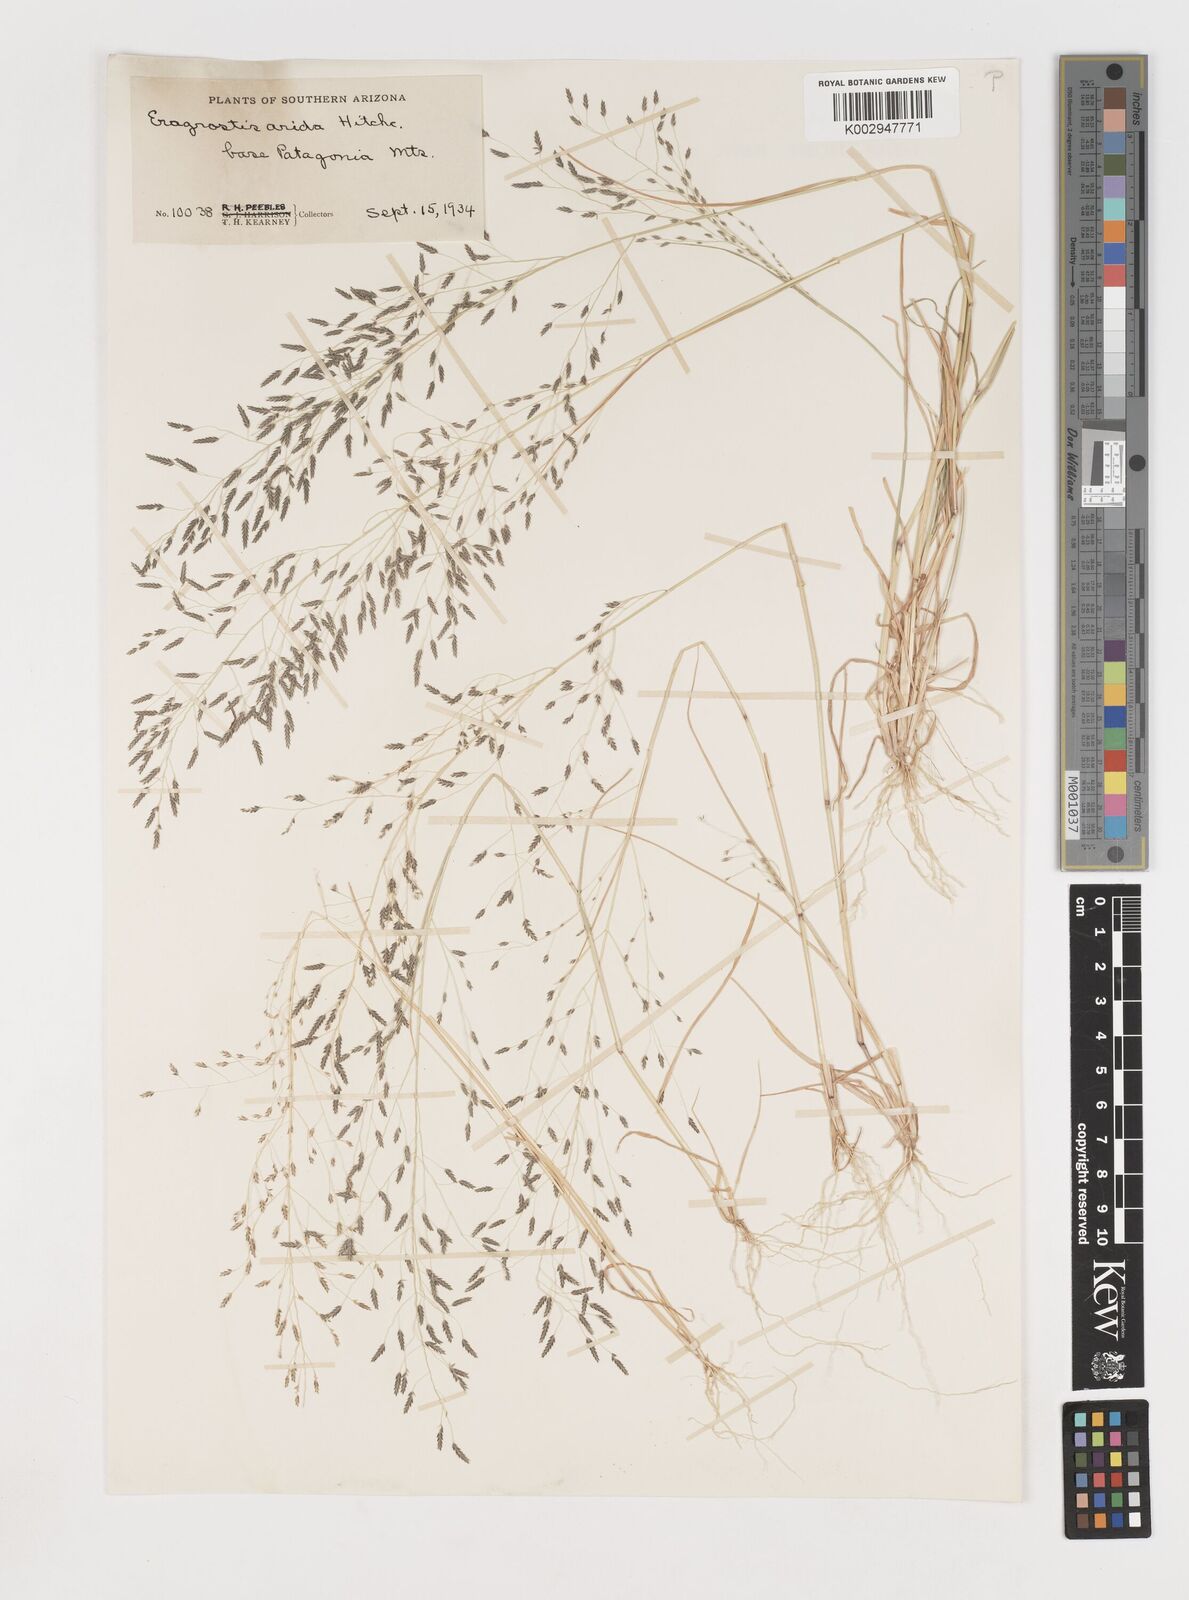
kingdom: Plantae
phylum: Tracheophyta
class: Liliopsida
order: Poales
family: Poaceae
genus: Eragrostis
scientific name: Eragrostis pectinacea
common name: Tufted lovegrass
